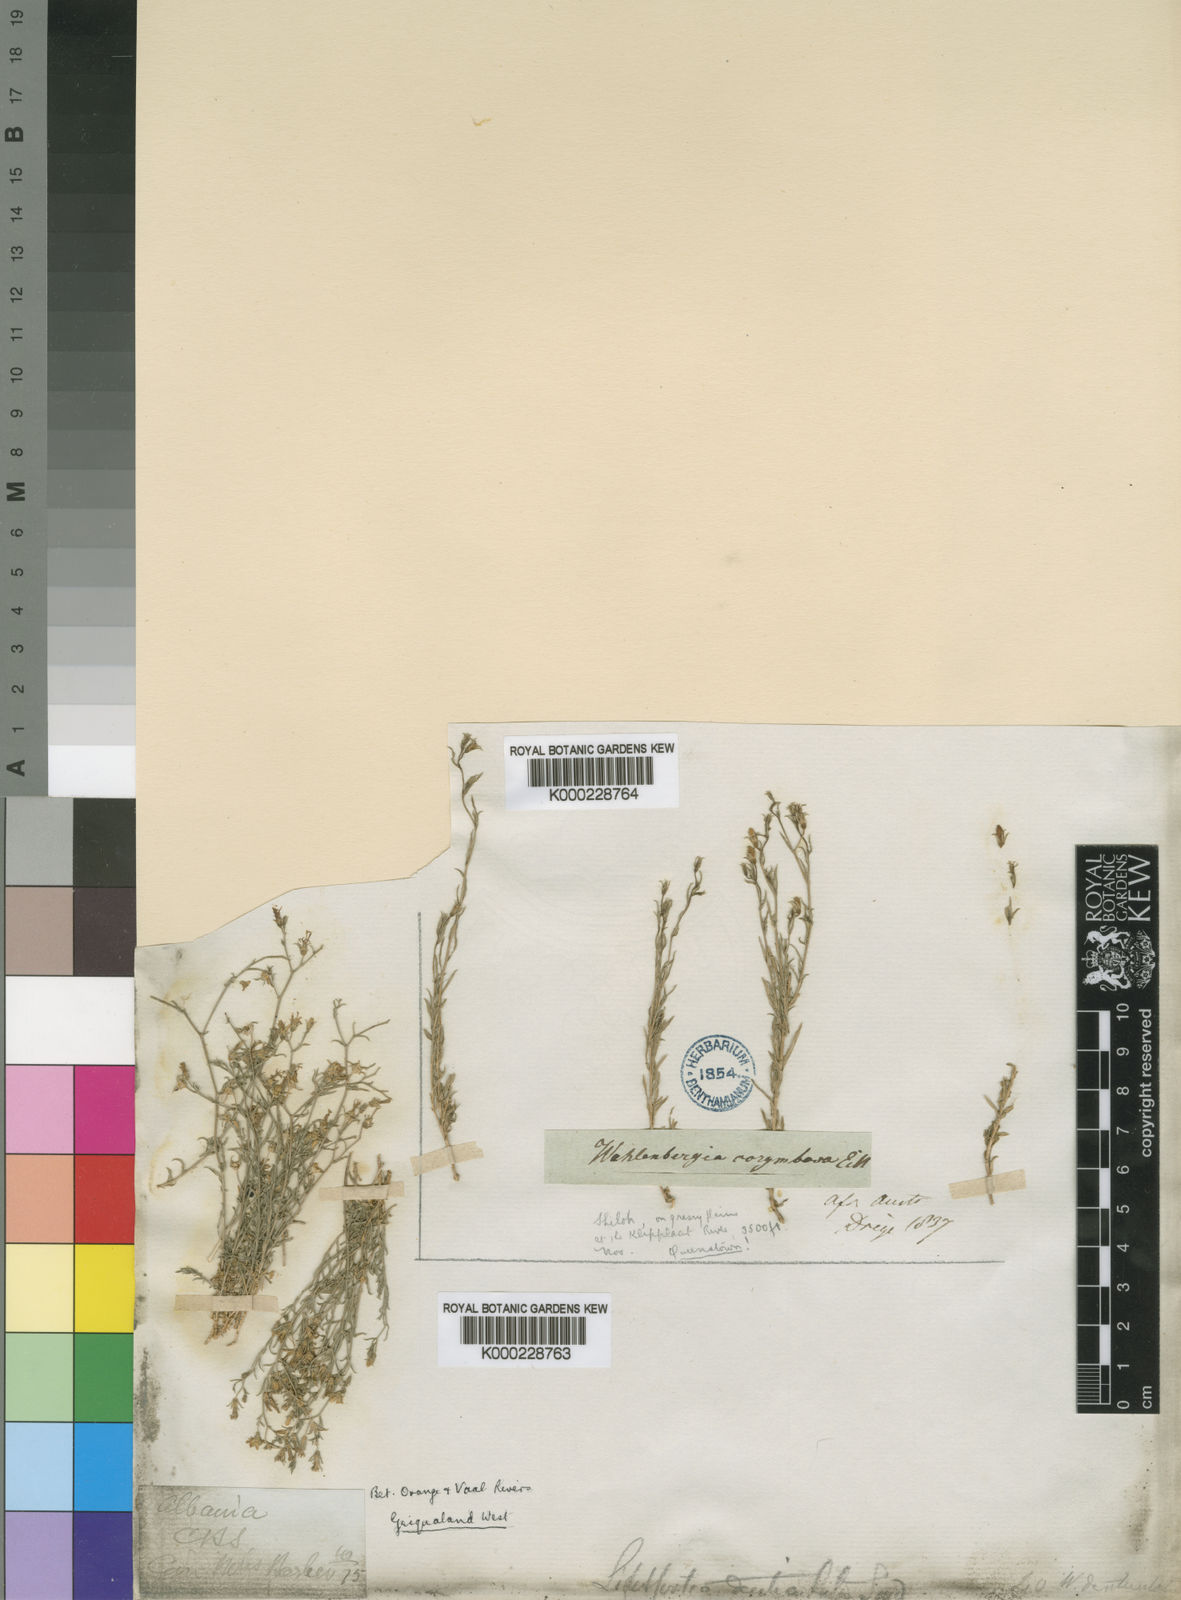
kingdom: Plantae
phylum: Tracheophyta
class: Magnoliopsida
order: Asterales
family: Campanulaceae
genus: Wahlenbergia
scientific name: Wahlenbergia denticulata
